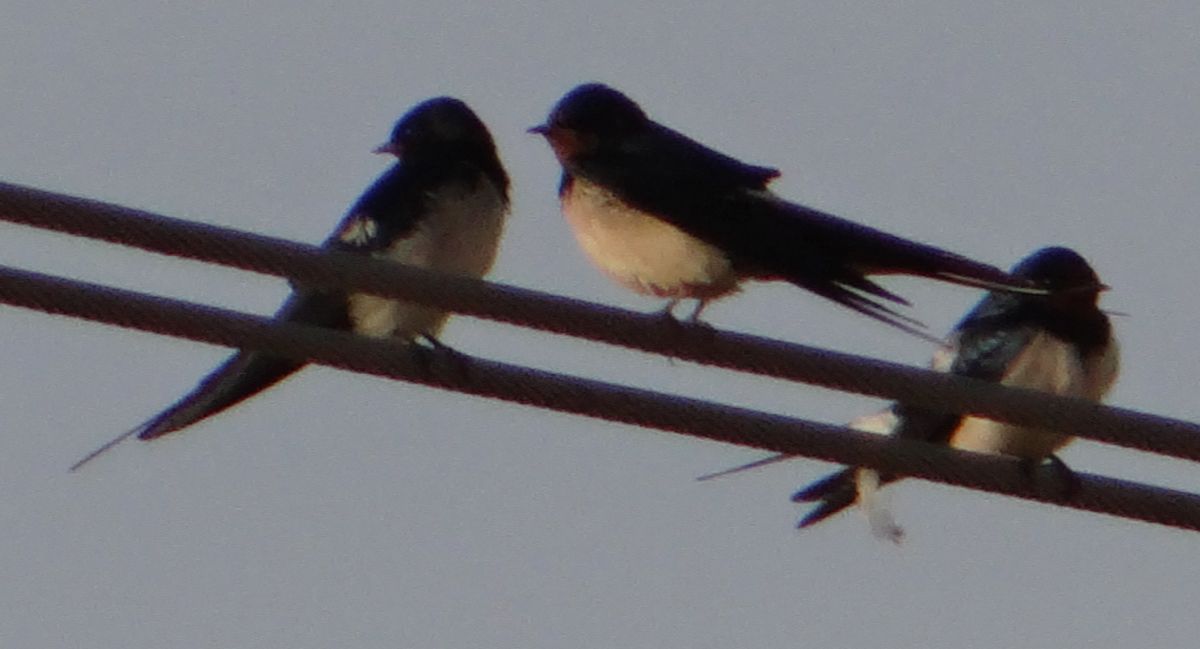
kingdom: Animalia
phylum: Chordata
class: Aves
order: Passeriformes
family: Hirundinidae
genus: Hirundo
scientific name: Hirundo rustica
